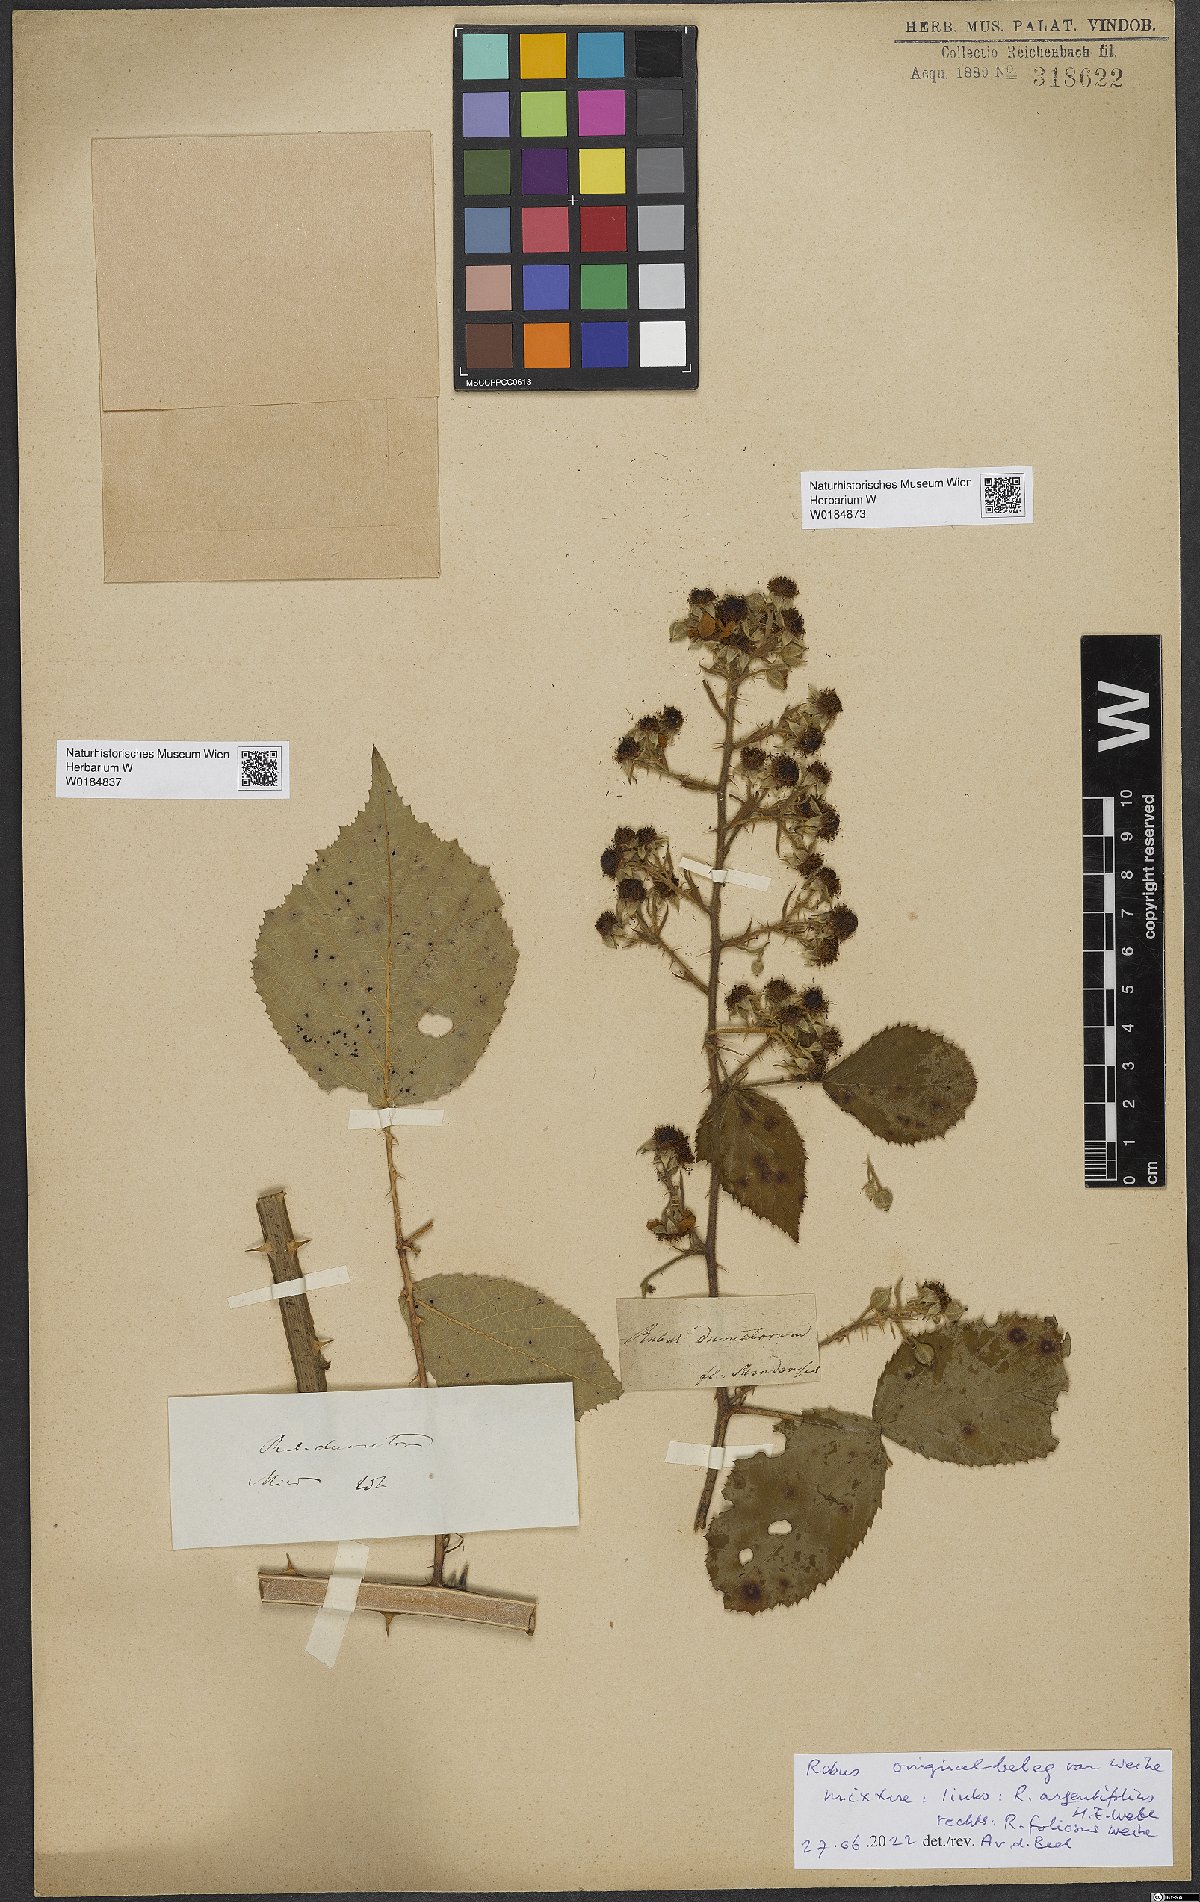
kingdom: Plantae
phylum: Tracheophyta
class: Magnoliopsida
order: Rosales
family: Rosaceae
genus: Rubus
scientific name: Rubus foliosus
